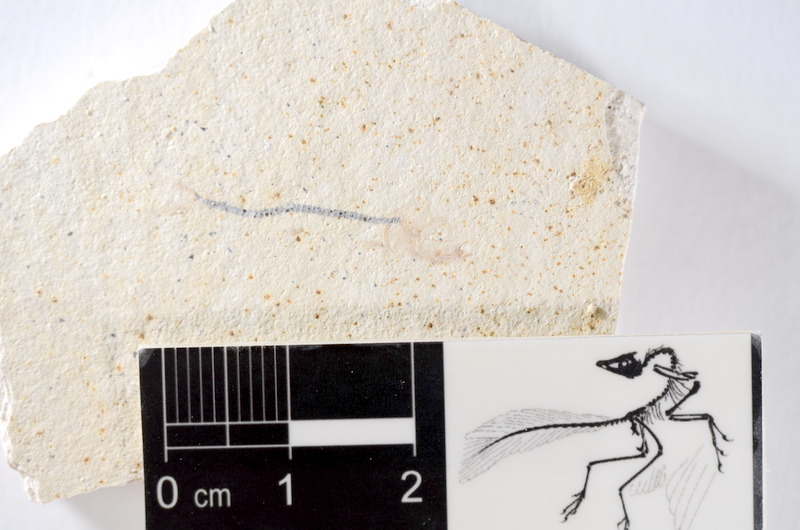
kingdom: Animalia
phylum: Chordata
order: Salmoniformes
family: Orthogonikleithridae
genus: Orthogonikleithrus
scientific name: Orthogonikleithrus hoelli
